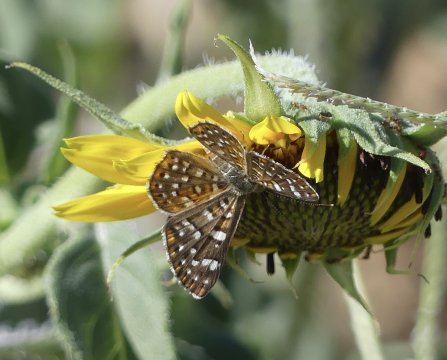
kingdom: Animalia
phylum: Arthropoda
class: Insecta
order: Lepidoptera
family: Riodinidae
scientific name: Riodinidae
